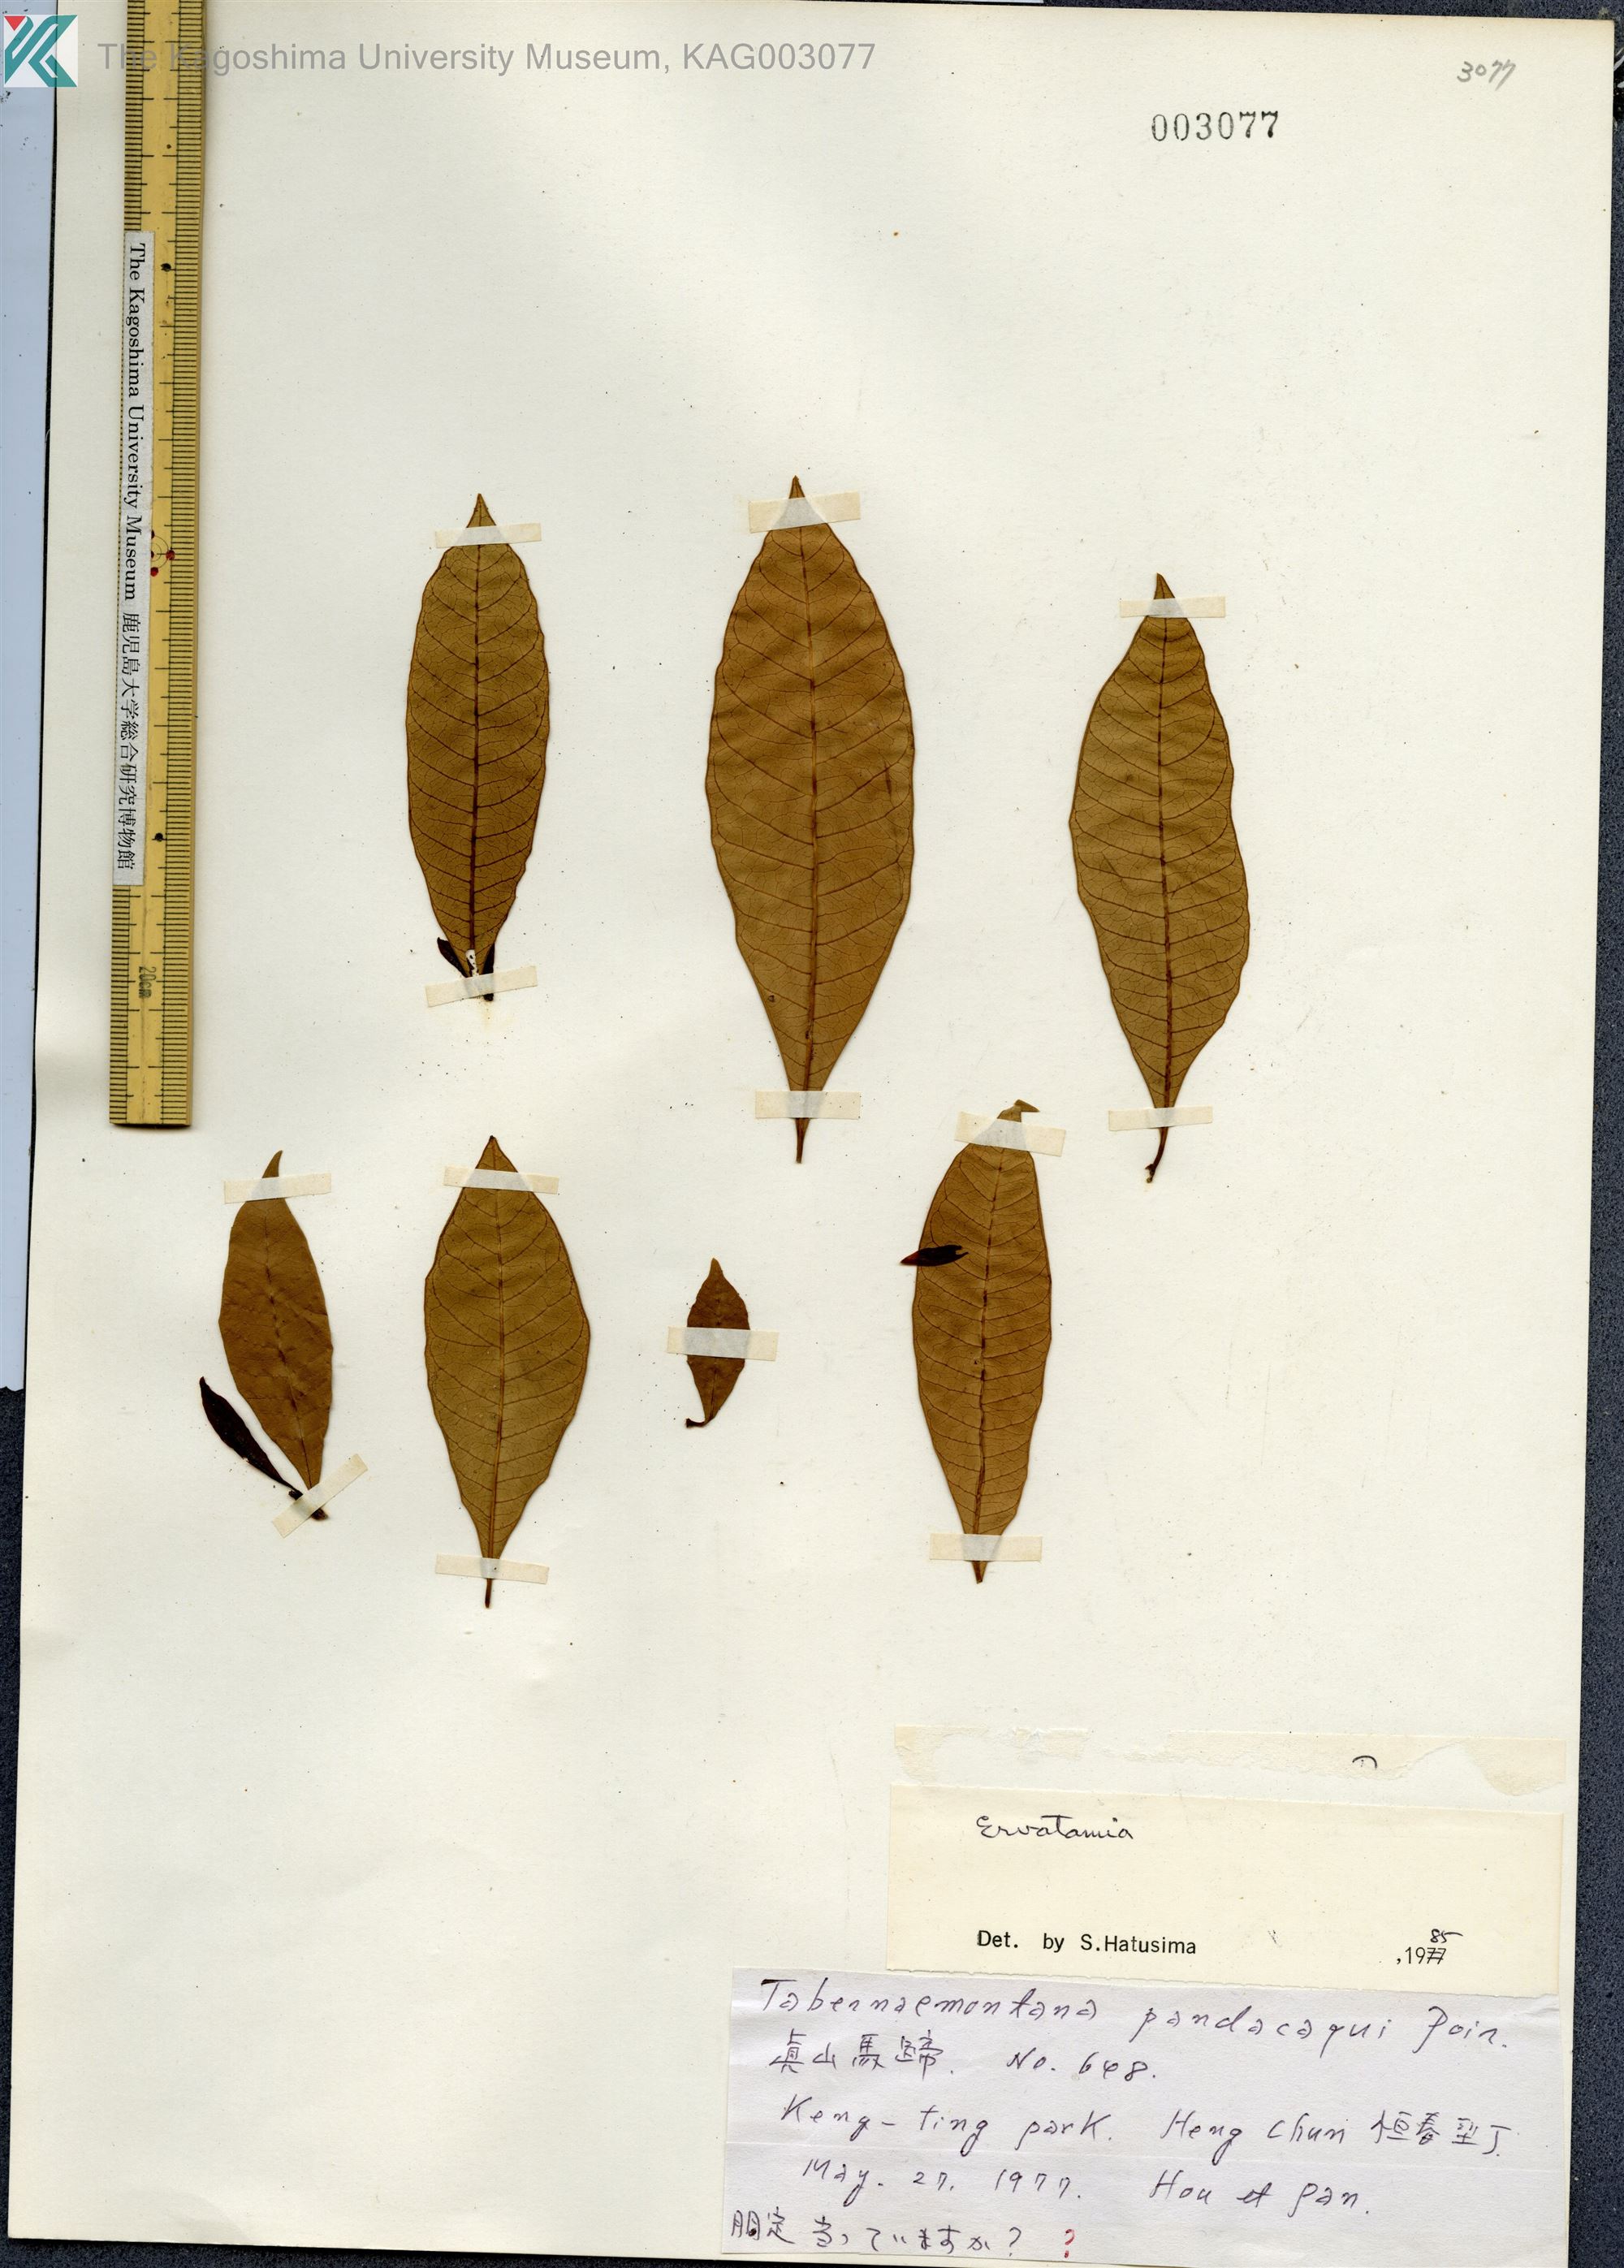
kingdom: Plantae
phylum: Tracheophyta
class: Magnoliopsida
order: Gentianales
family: Apocynaceae
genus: Tabernaemontana
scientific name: Tabernaemontana
